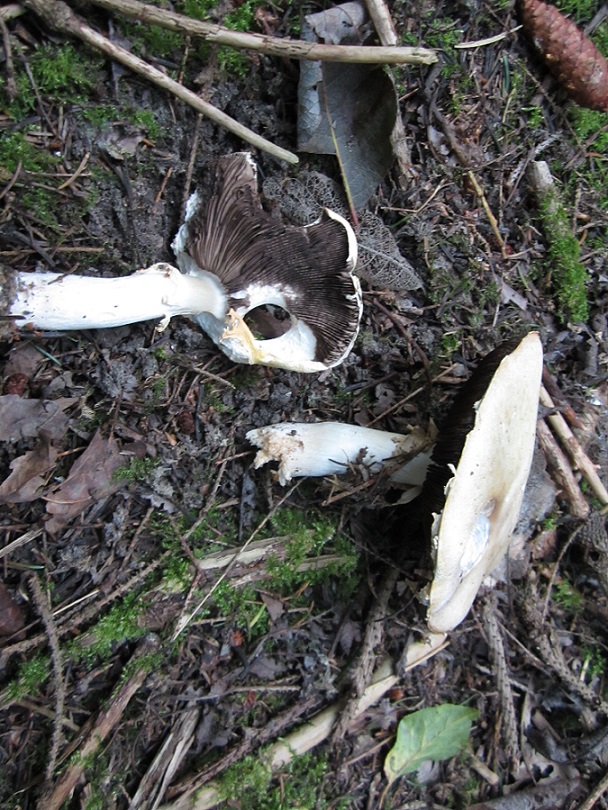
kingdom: Fungi
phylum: Basidiomycota
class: Agaricomycetes
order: Agaricales
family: Agaricaceae
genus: Agaricus
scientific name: Agaricus arvensis
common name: ager-champignon
